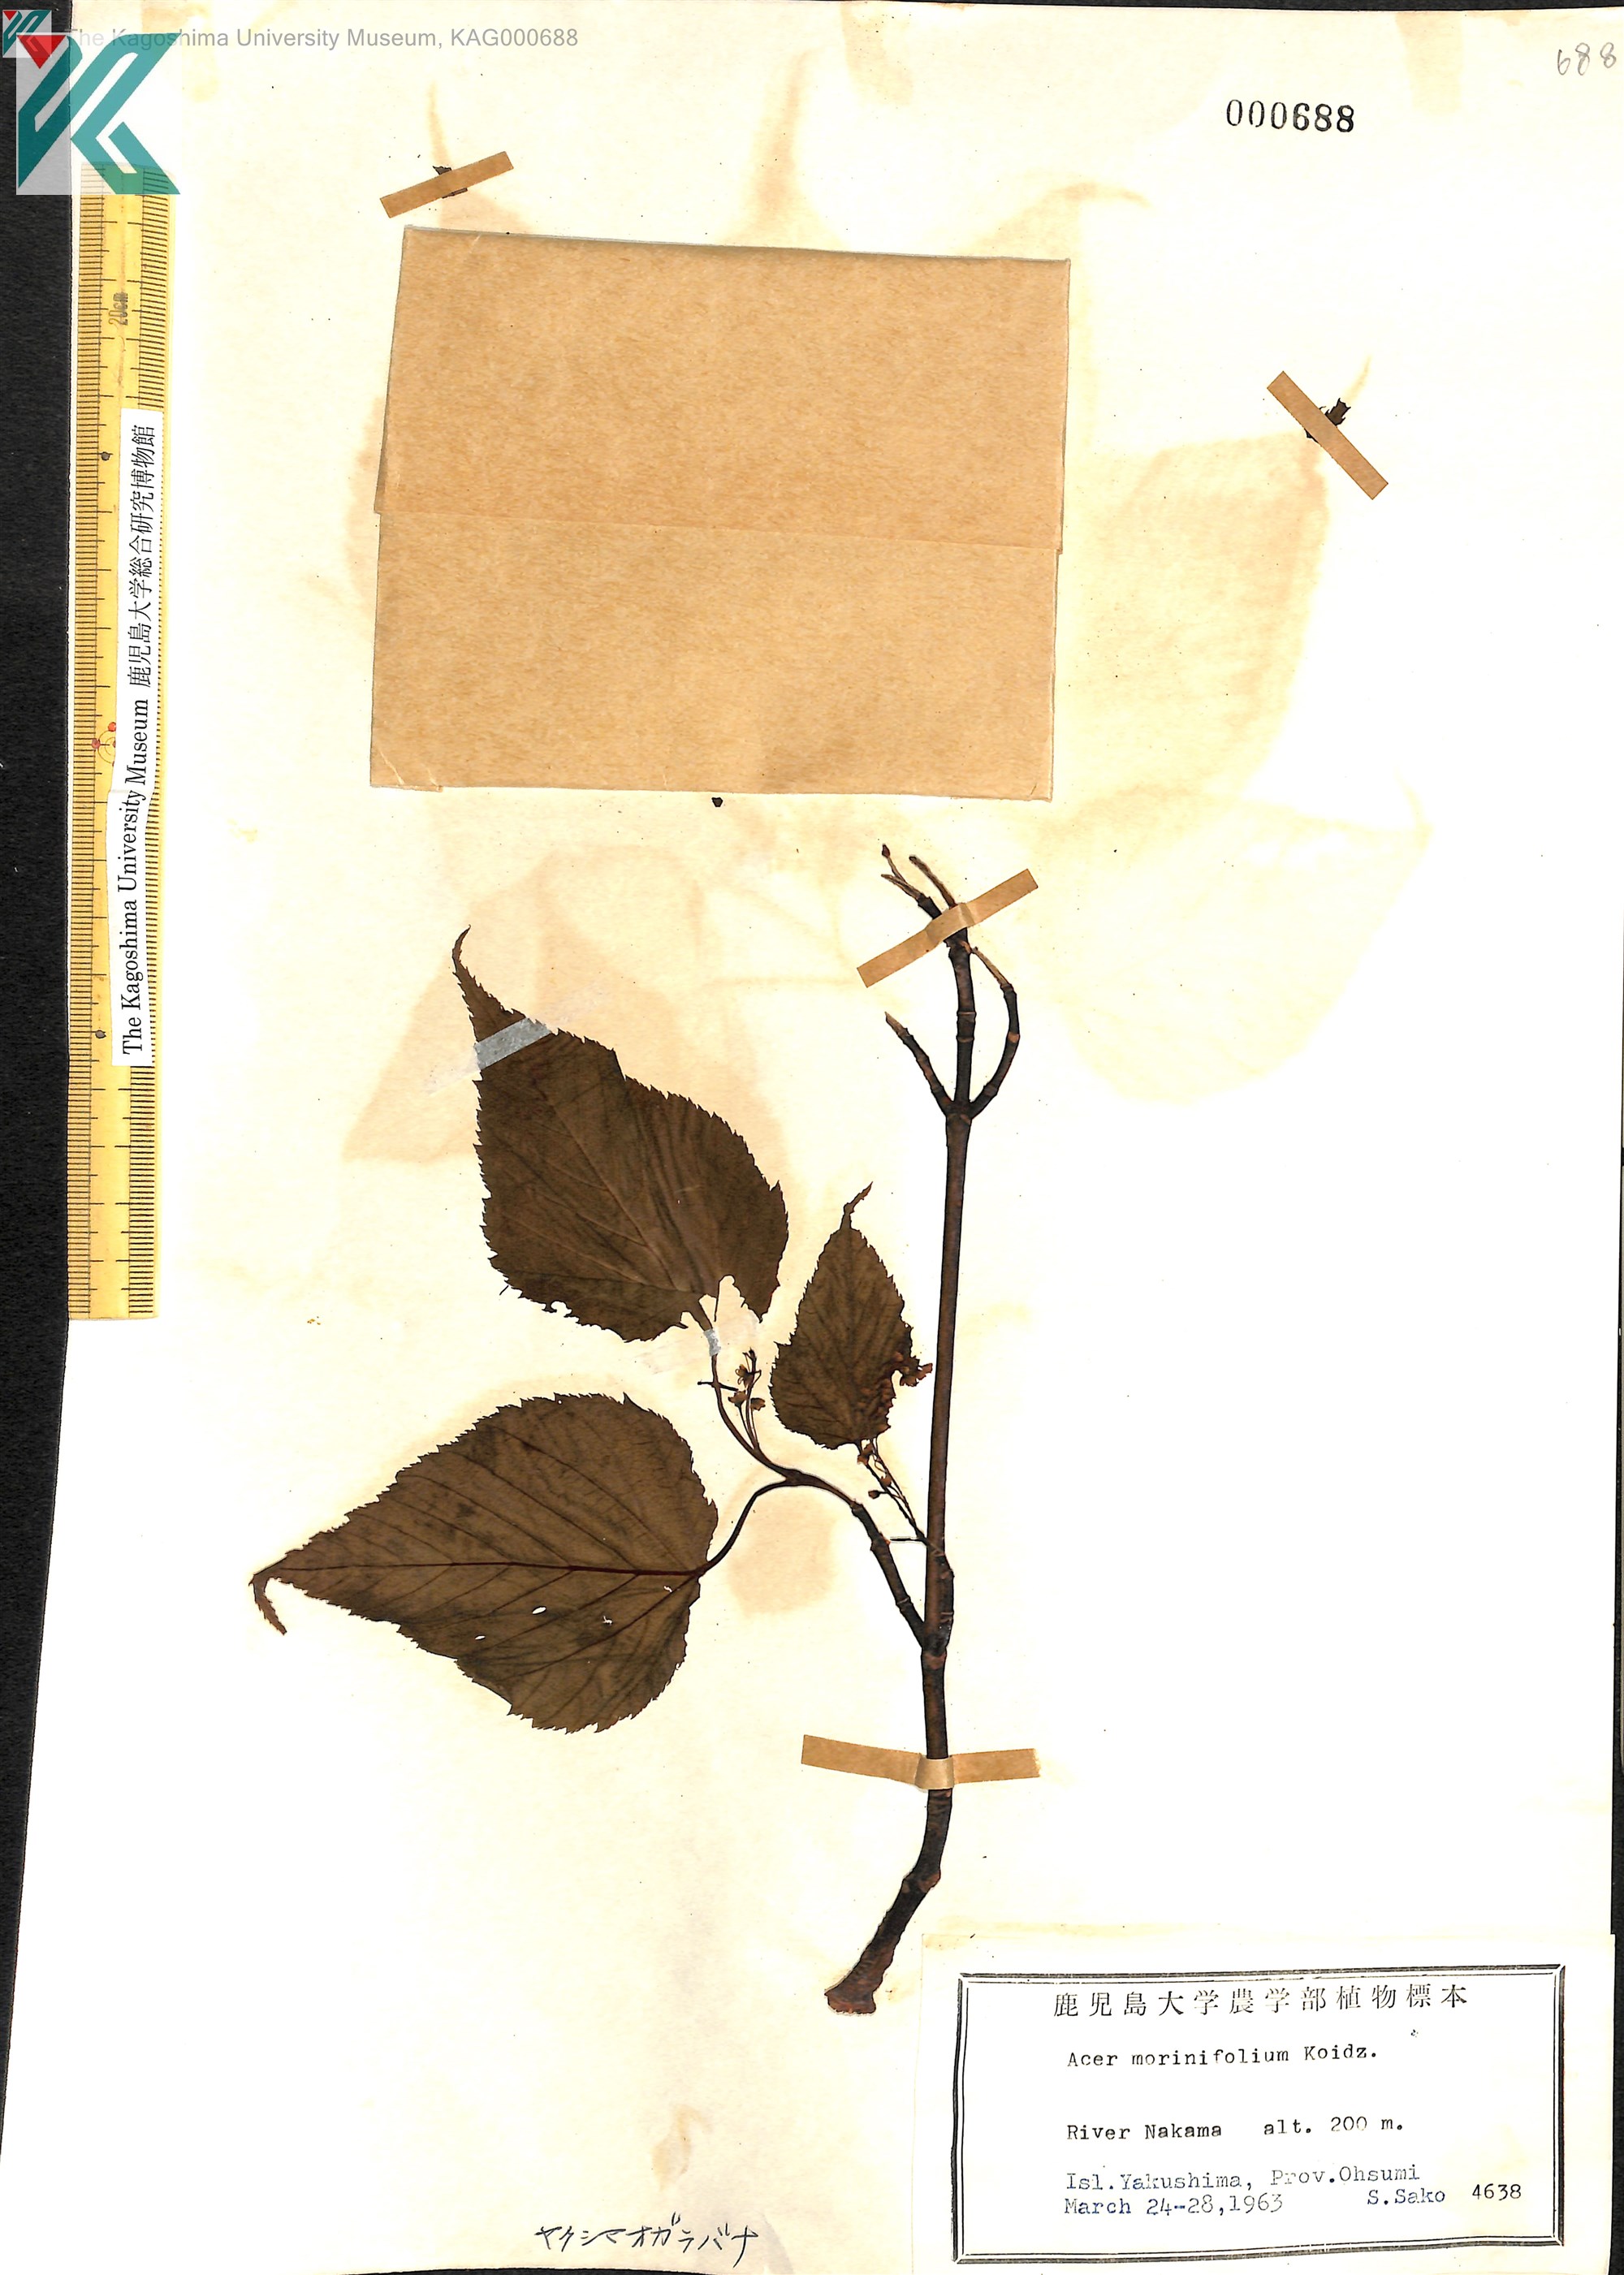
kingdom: Plantae
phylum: Tracheophyta
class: Magnoliopsida
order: Sapindales
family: Sapindaceae
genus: Acer
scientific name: Acer morifolium
